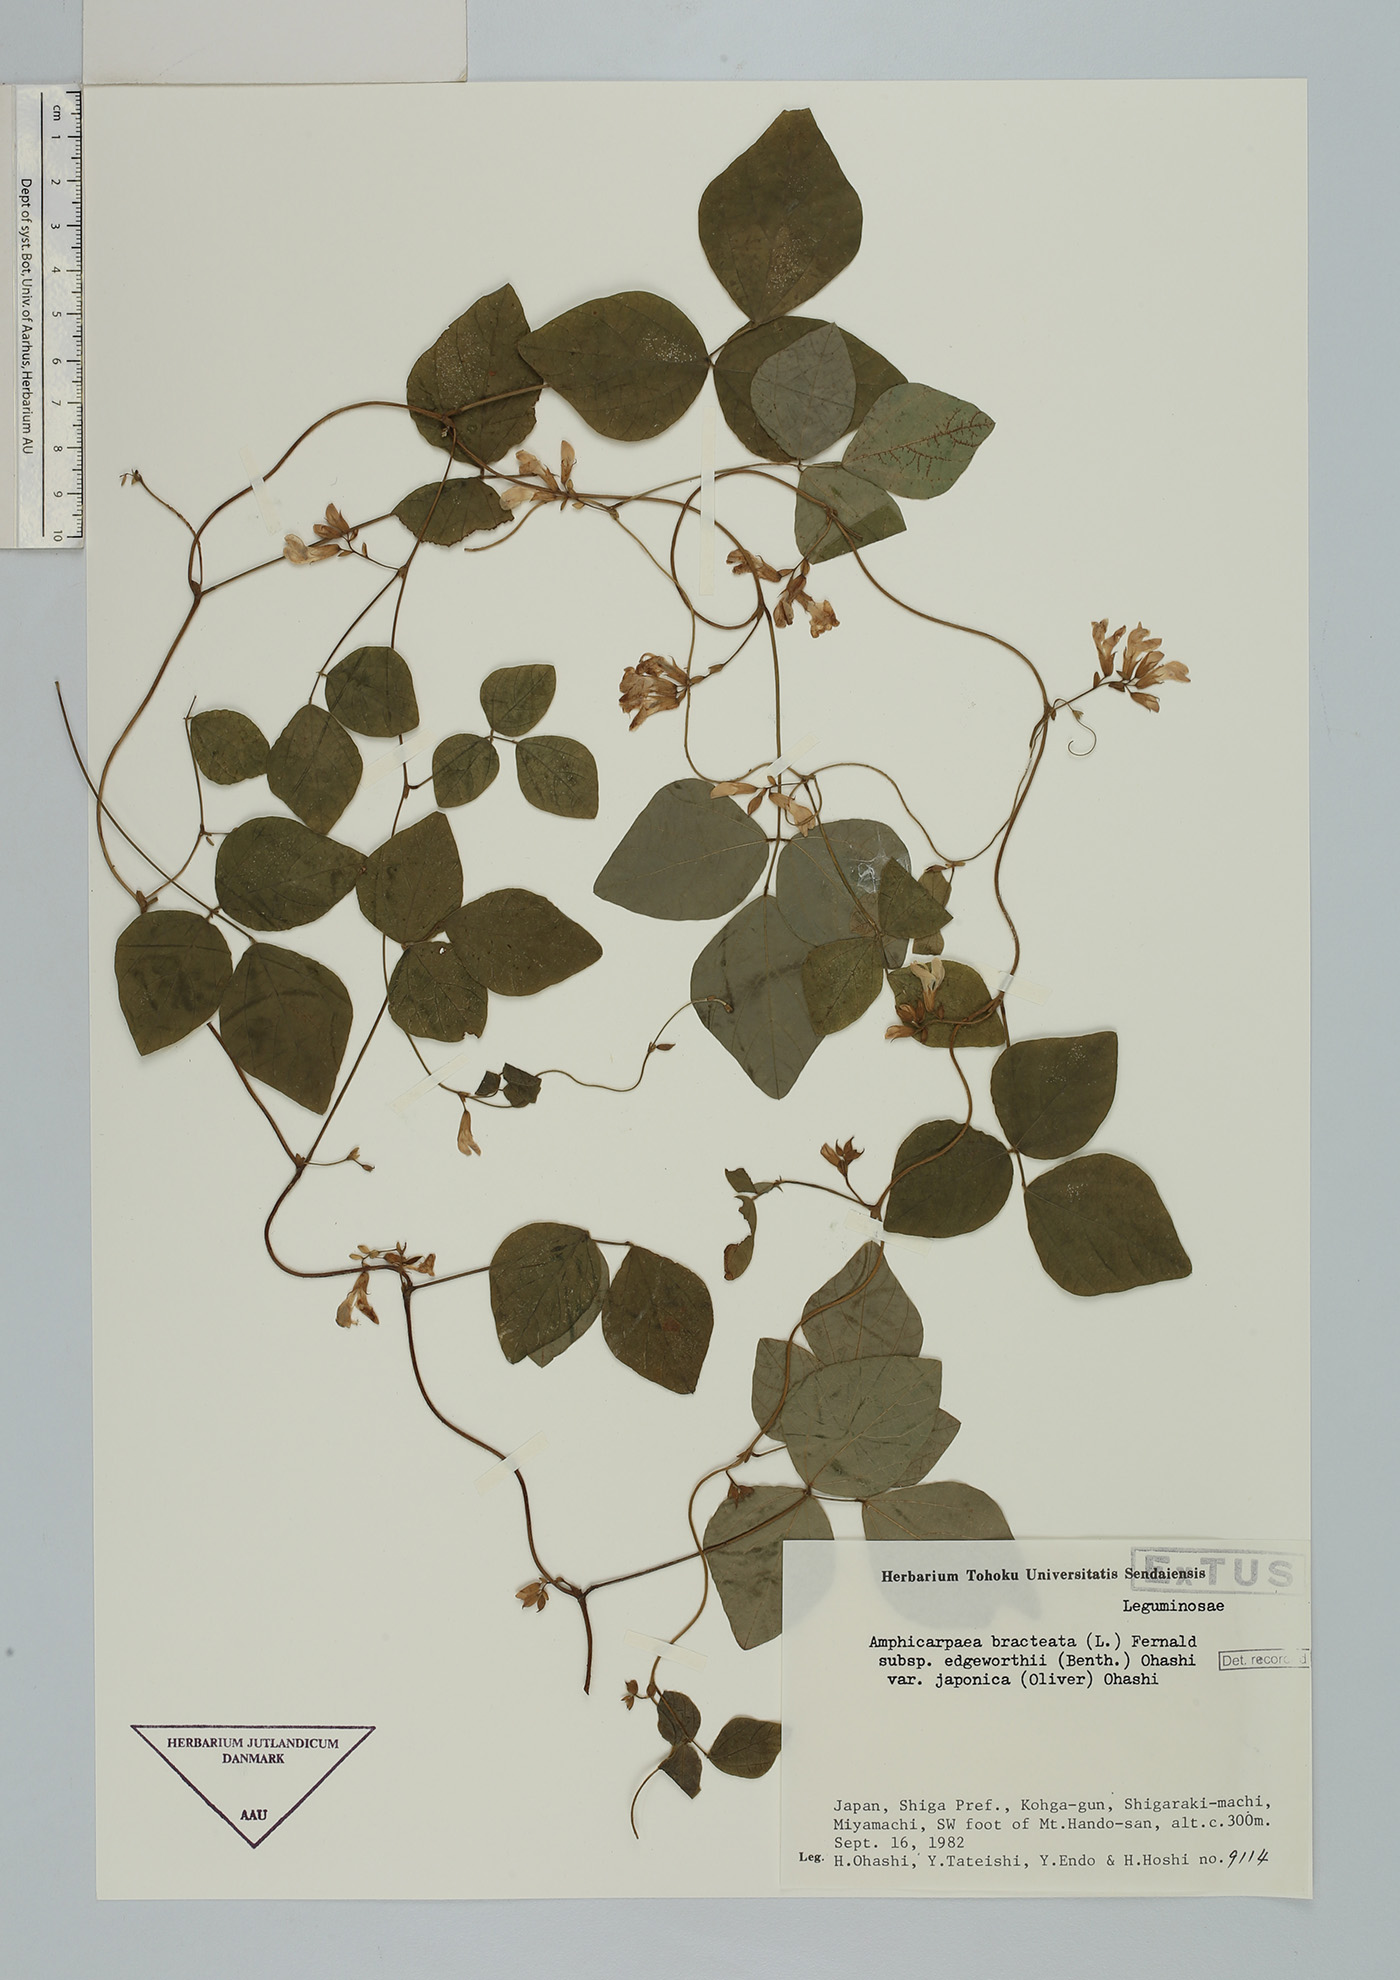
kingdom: Plantae
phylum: Tracheophyta
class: Magnoliopsida
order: Fabales
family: Fabaceae
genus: Amphicarpaea
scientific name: Amphicarpaea edgeworthii
